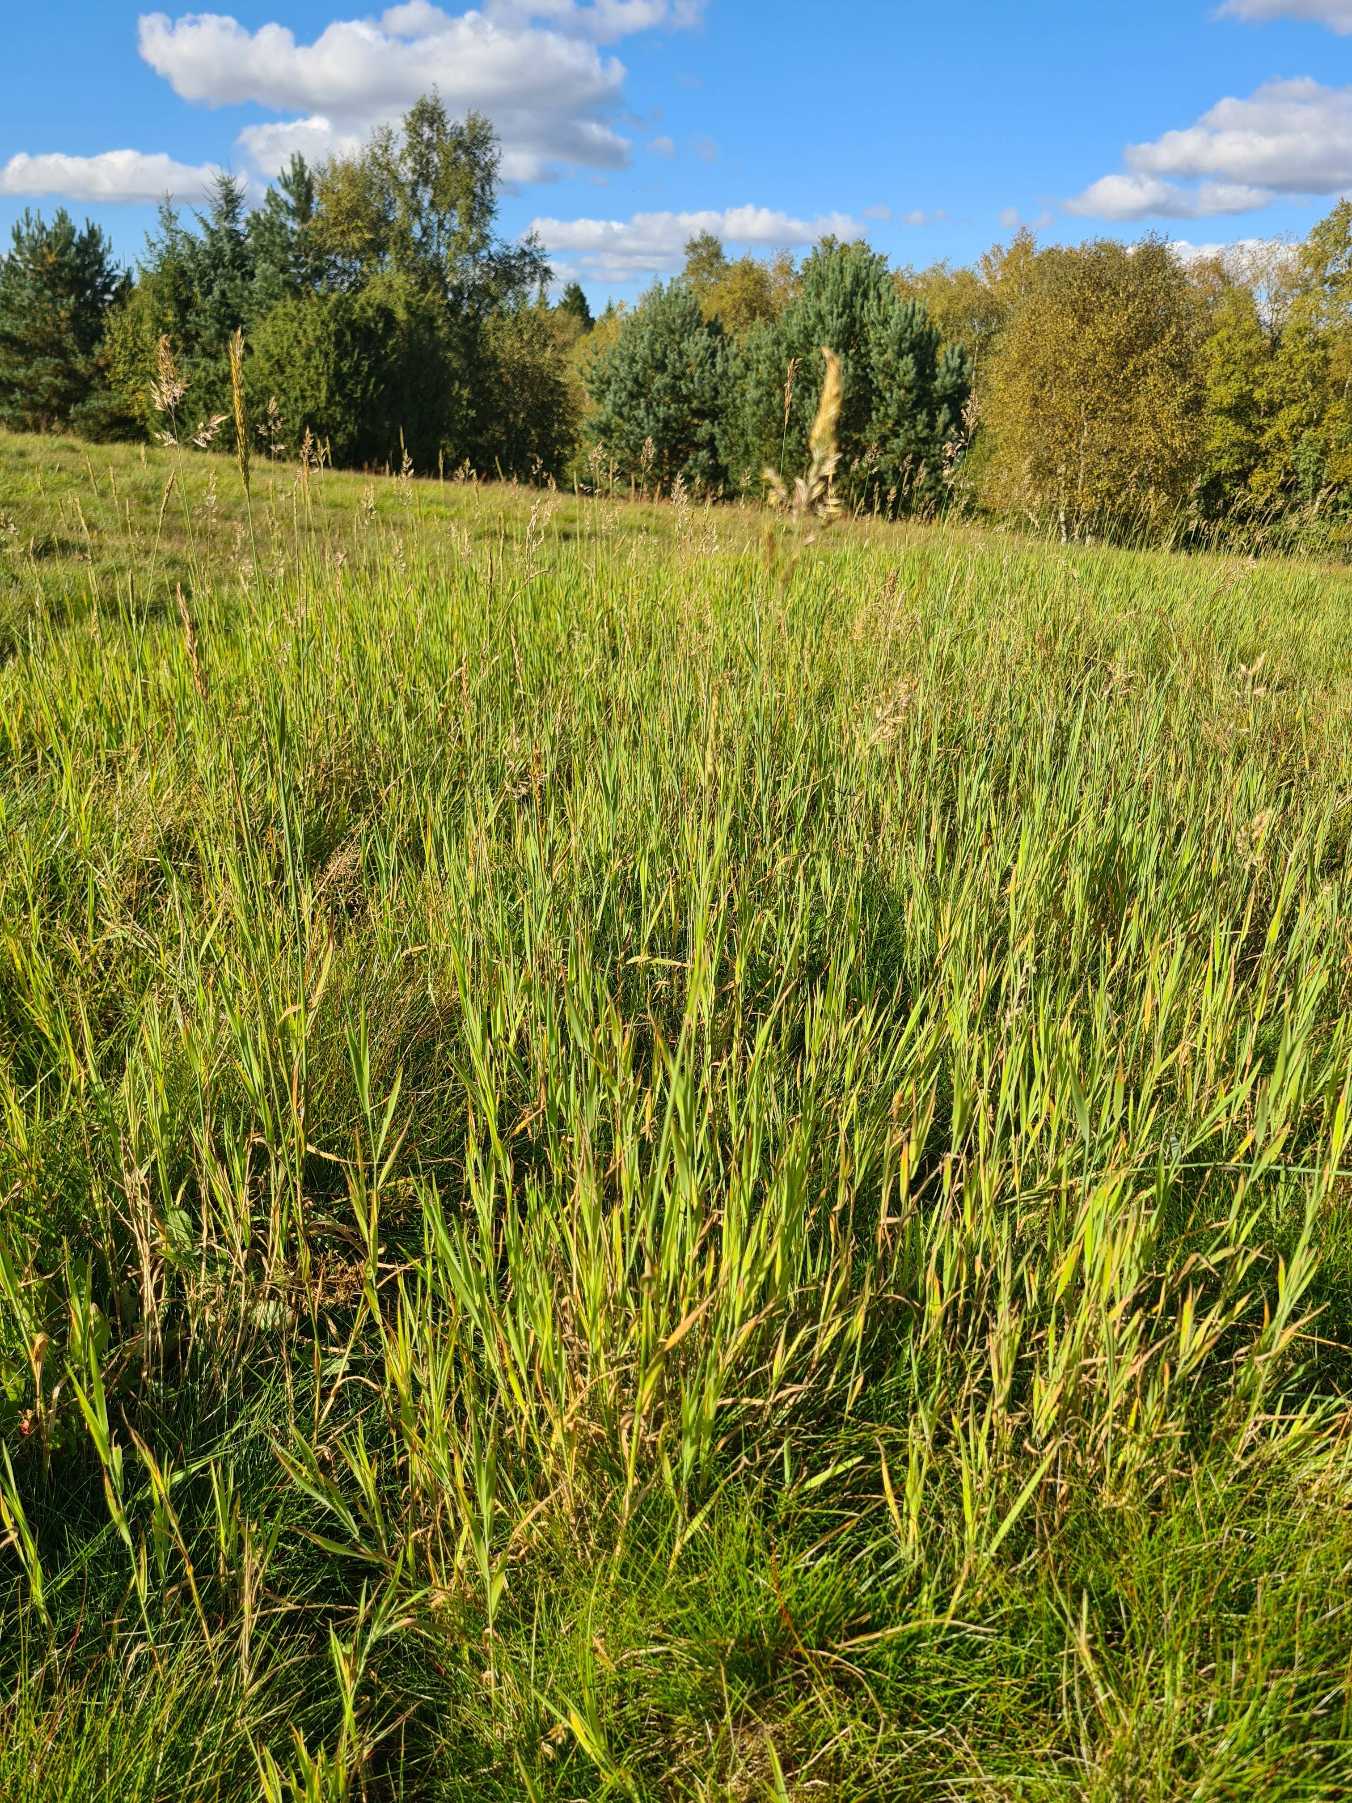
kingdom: Plantae
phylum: Tracheophyta
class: Liliopsida
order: Poales
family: Poaceae
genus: Holcus
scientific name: Holcus mollis
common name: Krybende hestegræs
